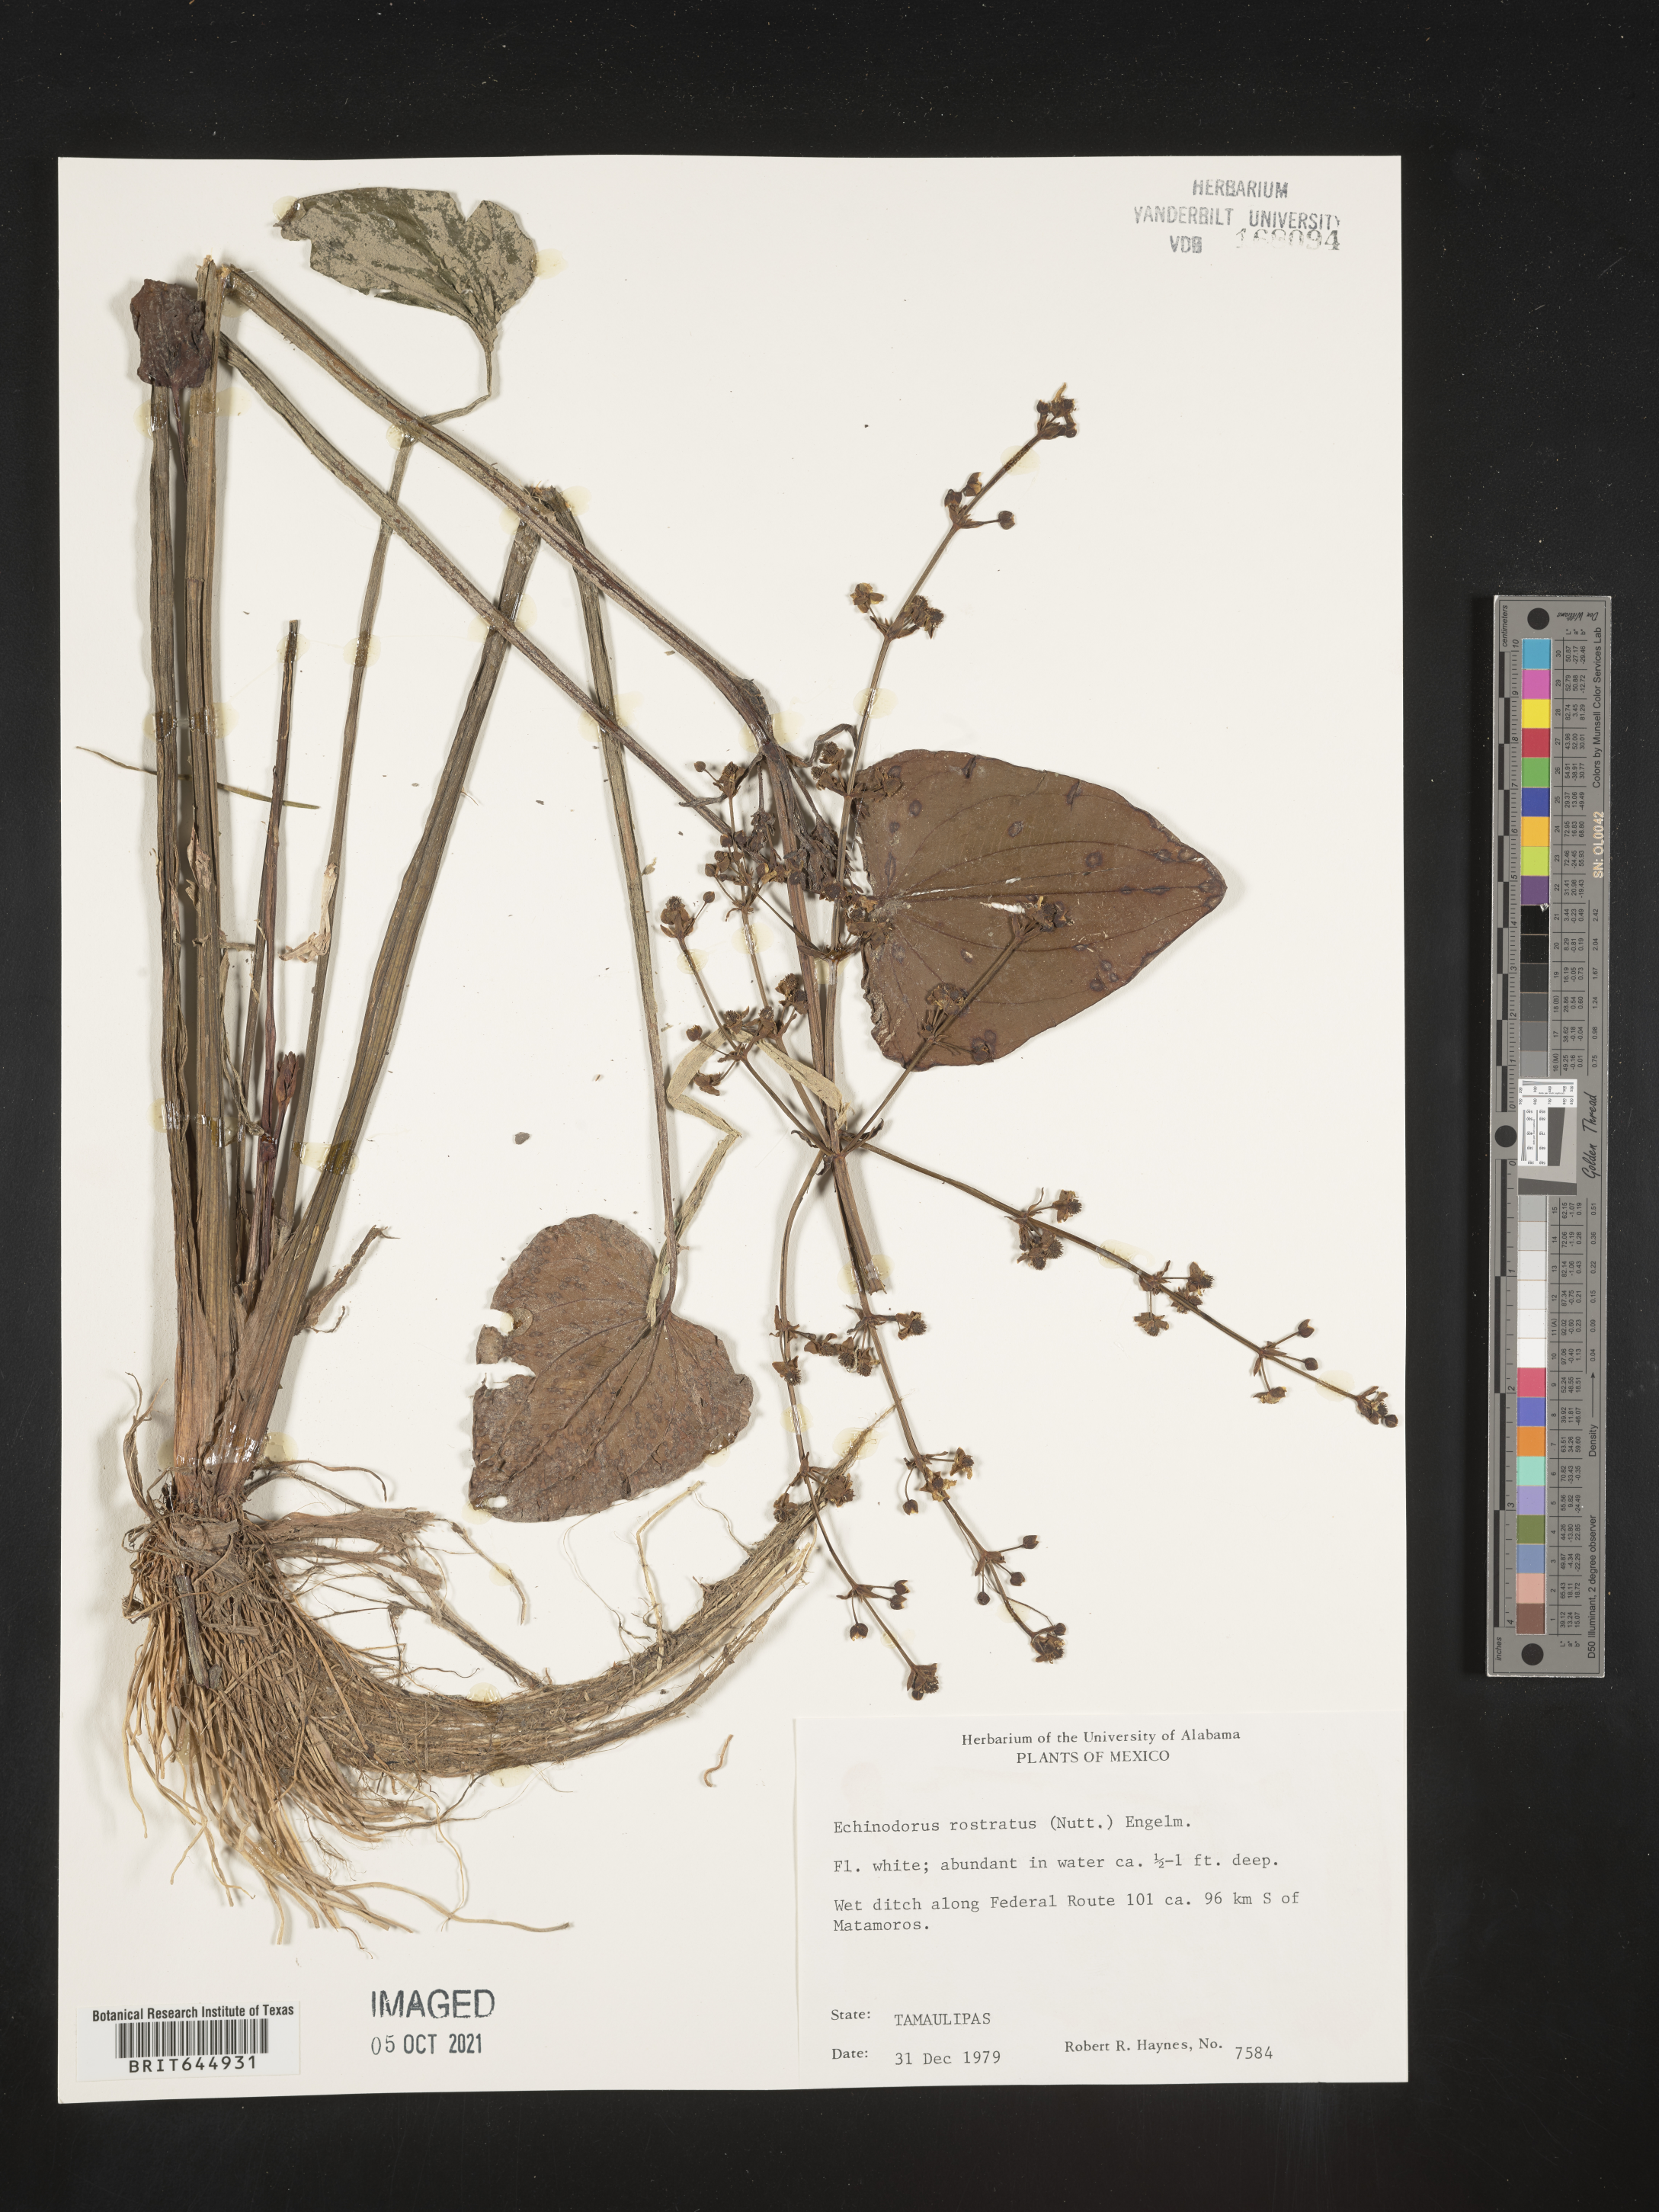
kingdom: Plantae
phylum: Tracheophyta
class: Liliopsida
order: Alismatales
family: Alismataceae
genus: Echinodorus
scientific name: Echinodorus
